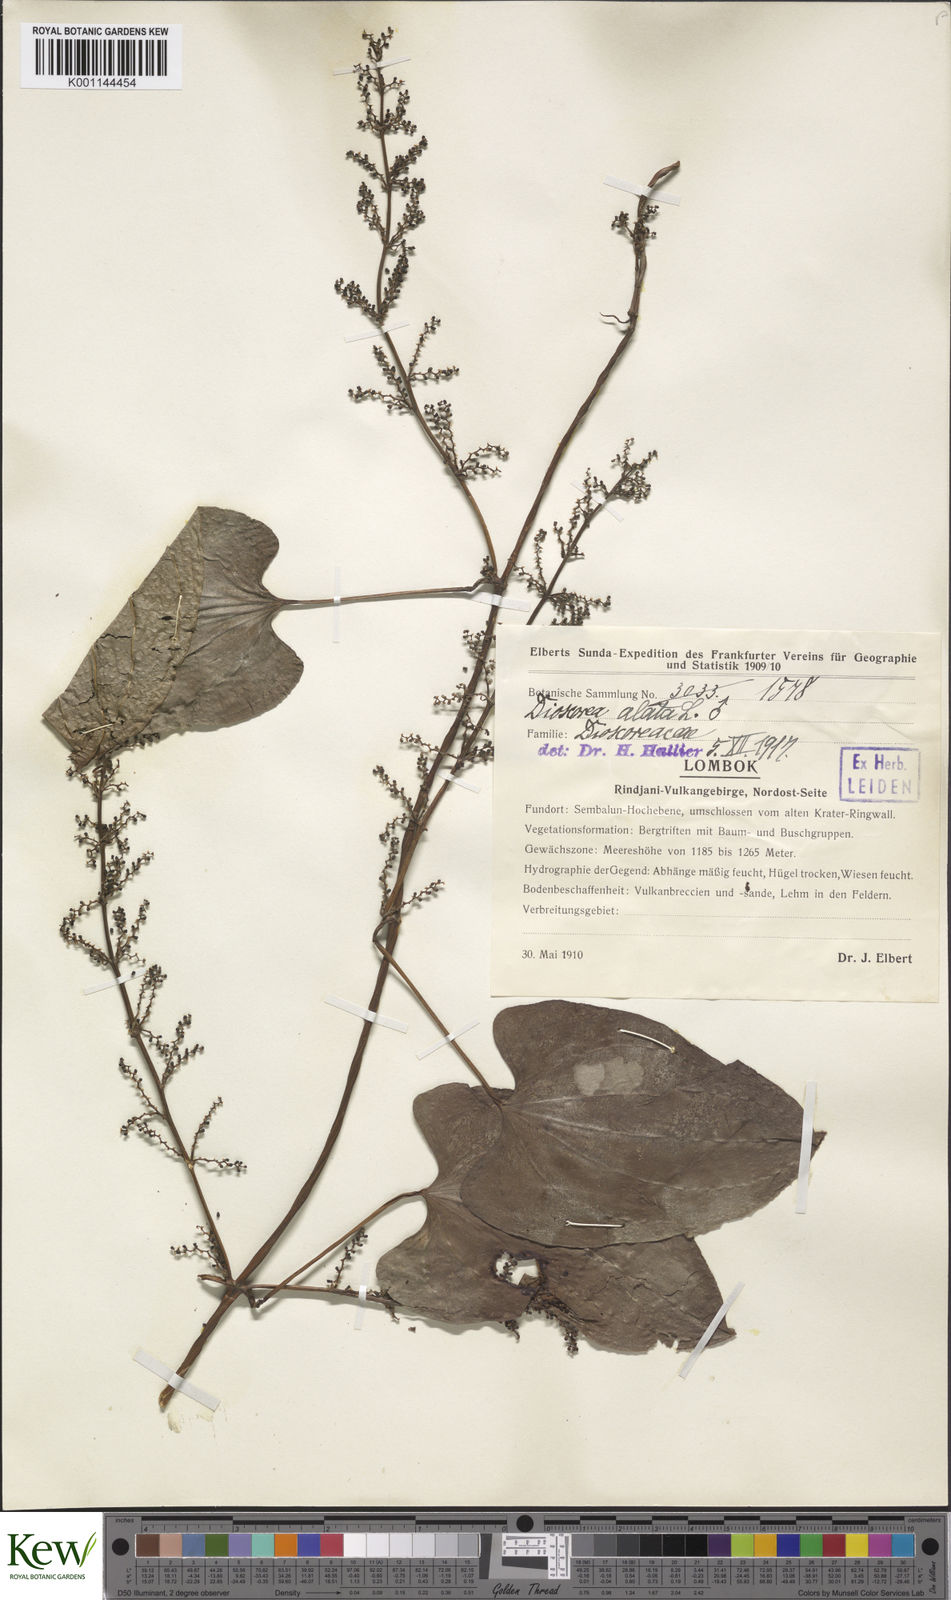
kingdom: Plantae
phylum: Tracheophyta
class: Liliopsida
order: Dioscoreales
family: Dioscoreaceae
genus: Dioscorea
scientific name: Dioscorea alata
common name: Water yam
